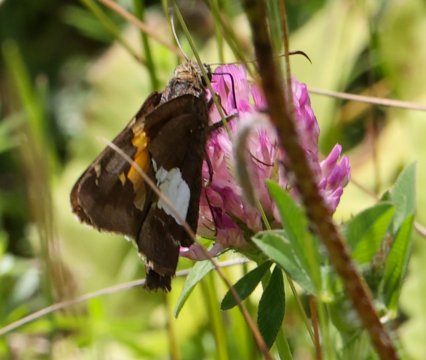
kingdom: Animalia
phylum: Arthropoda
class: Insecta
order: Lepidoptera
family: Hesperiidae
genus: Epargyreus
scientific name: Epargyreus clarus
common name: Silver-spotted Skipper
